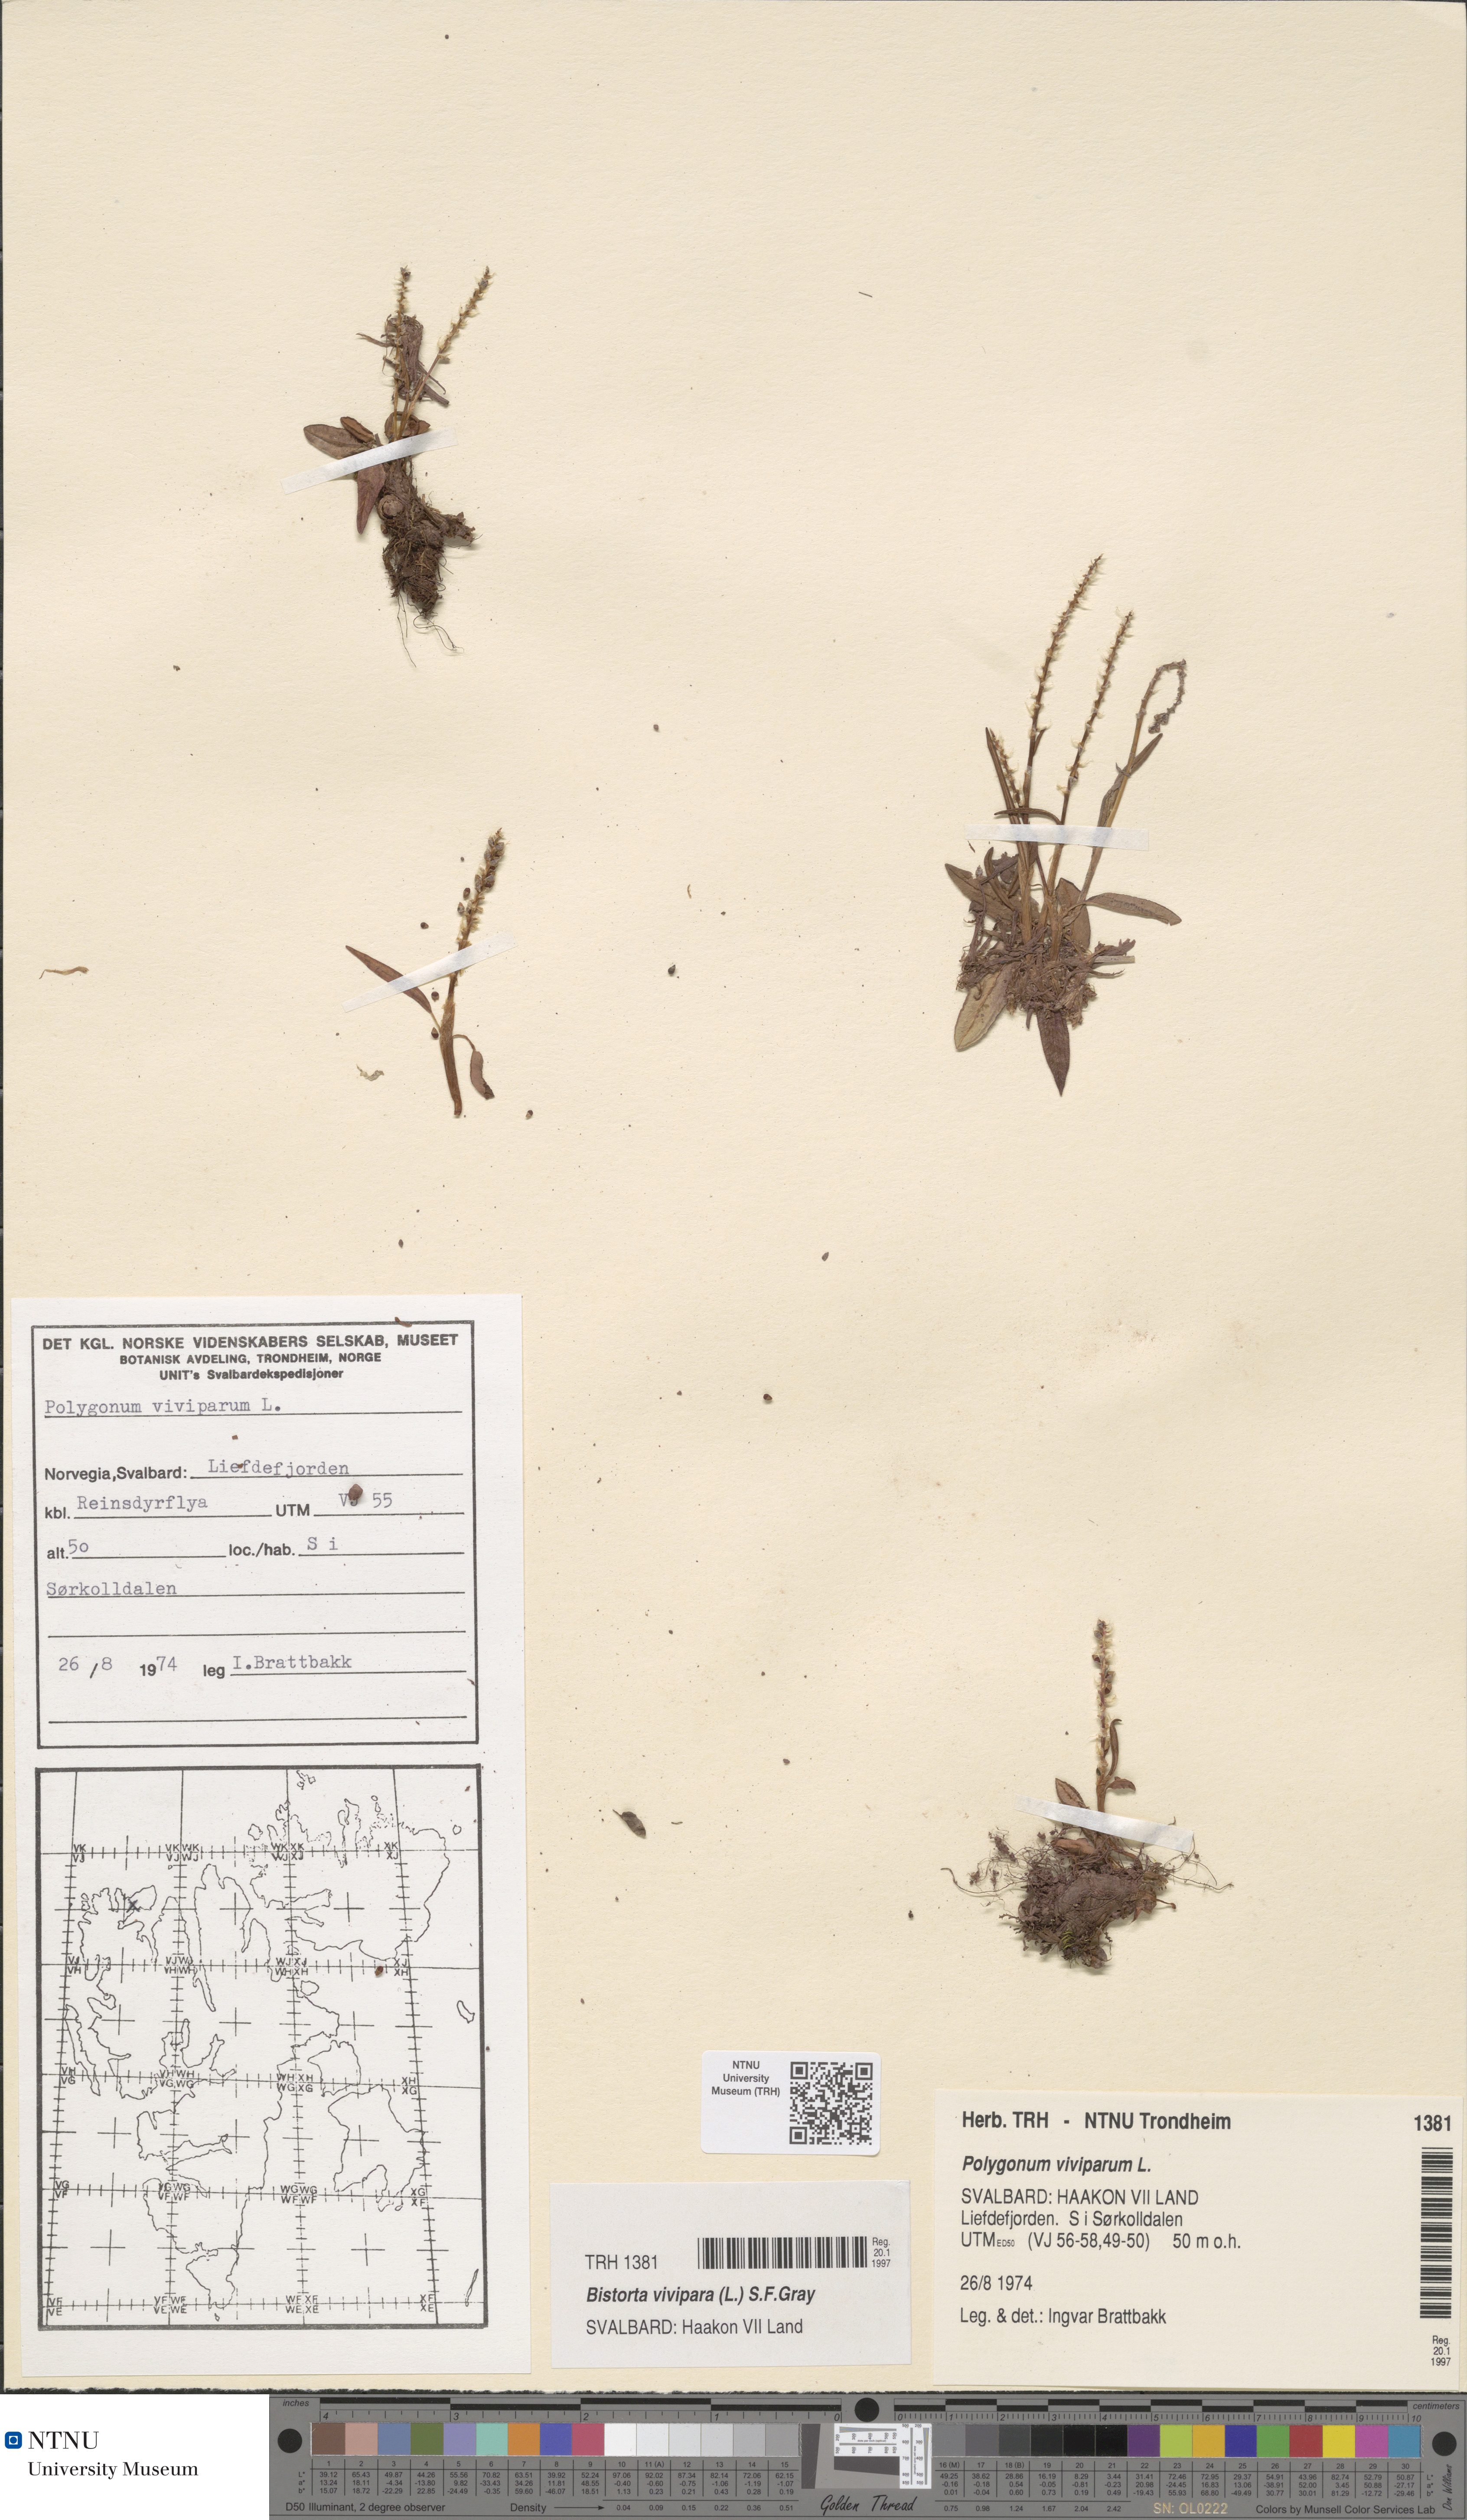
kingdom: Plantae
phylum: Tracheophyta
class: Magnoliopsida
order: Caryophyllales
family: Polygonaceae
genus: Bistorta
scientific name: Bistorta vivipara
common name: Alpine bistort
